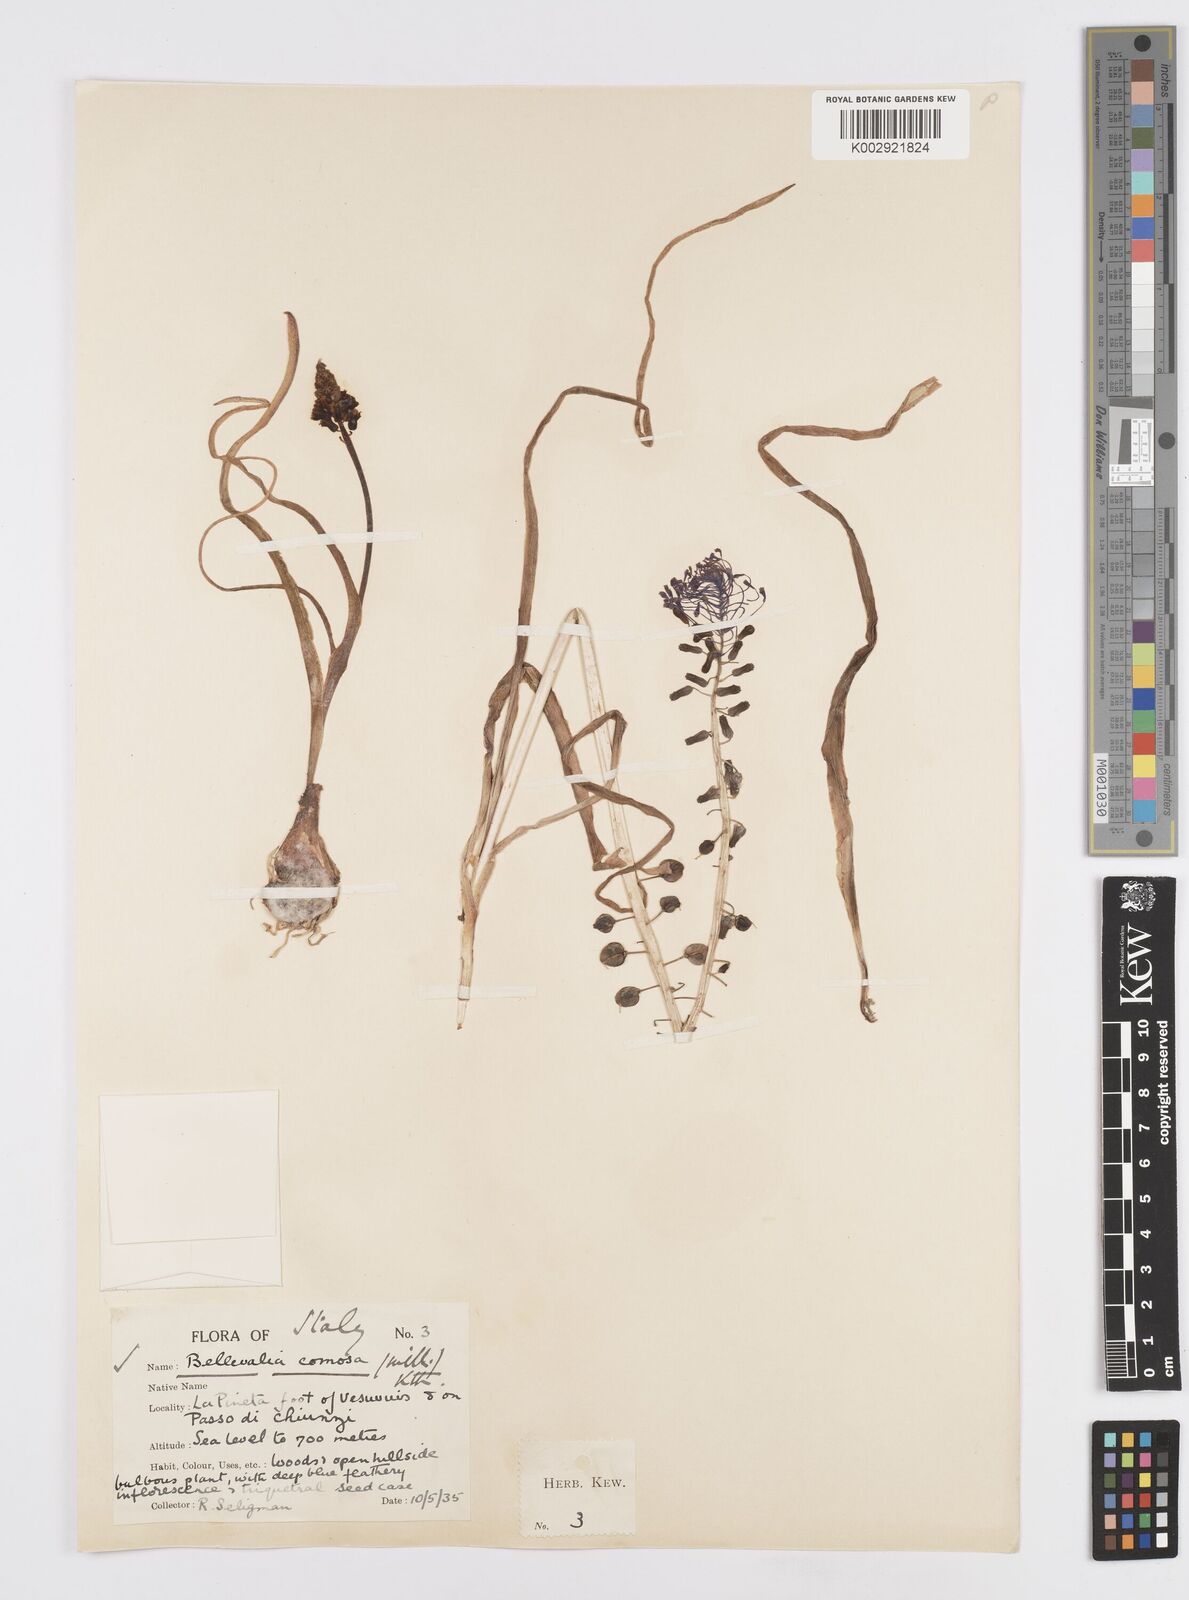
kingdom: Plantae
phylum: Tracheophyta
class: Liliopsida
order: Asparagales
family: Asparagaceae
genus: Muscari
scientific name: Muscari comosum
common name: Tassel hyacinth
